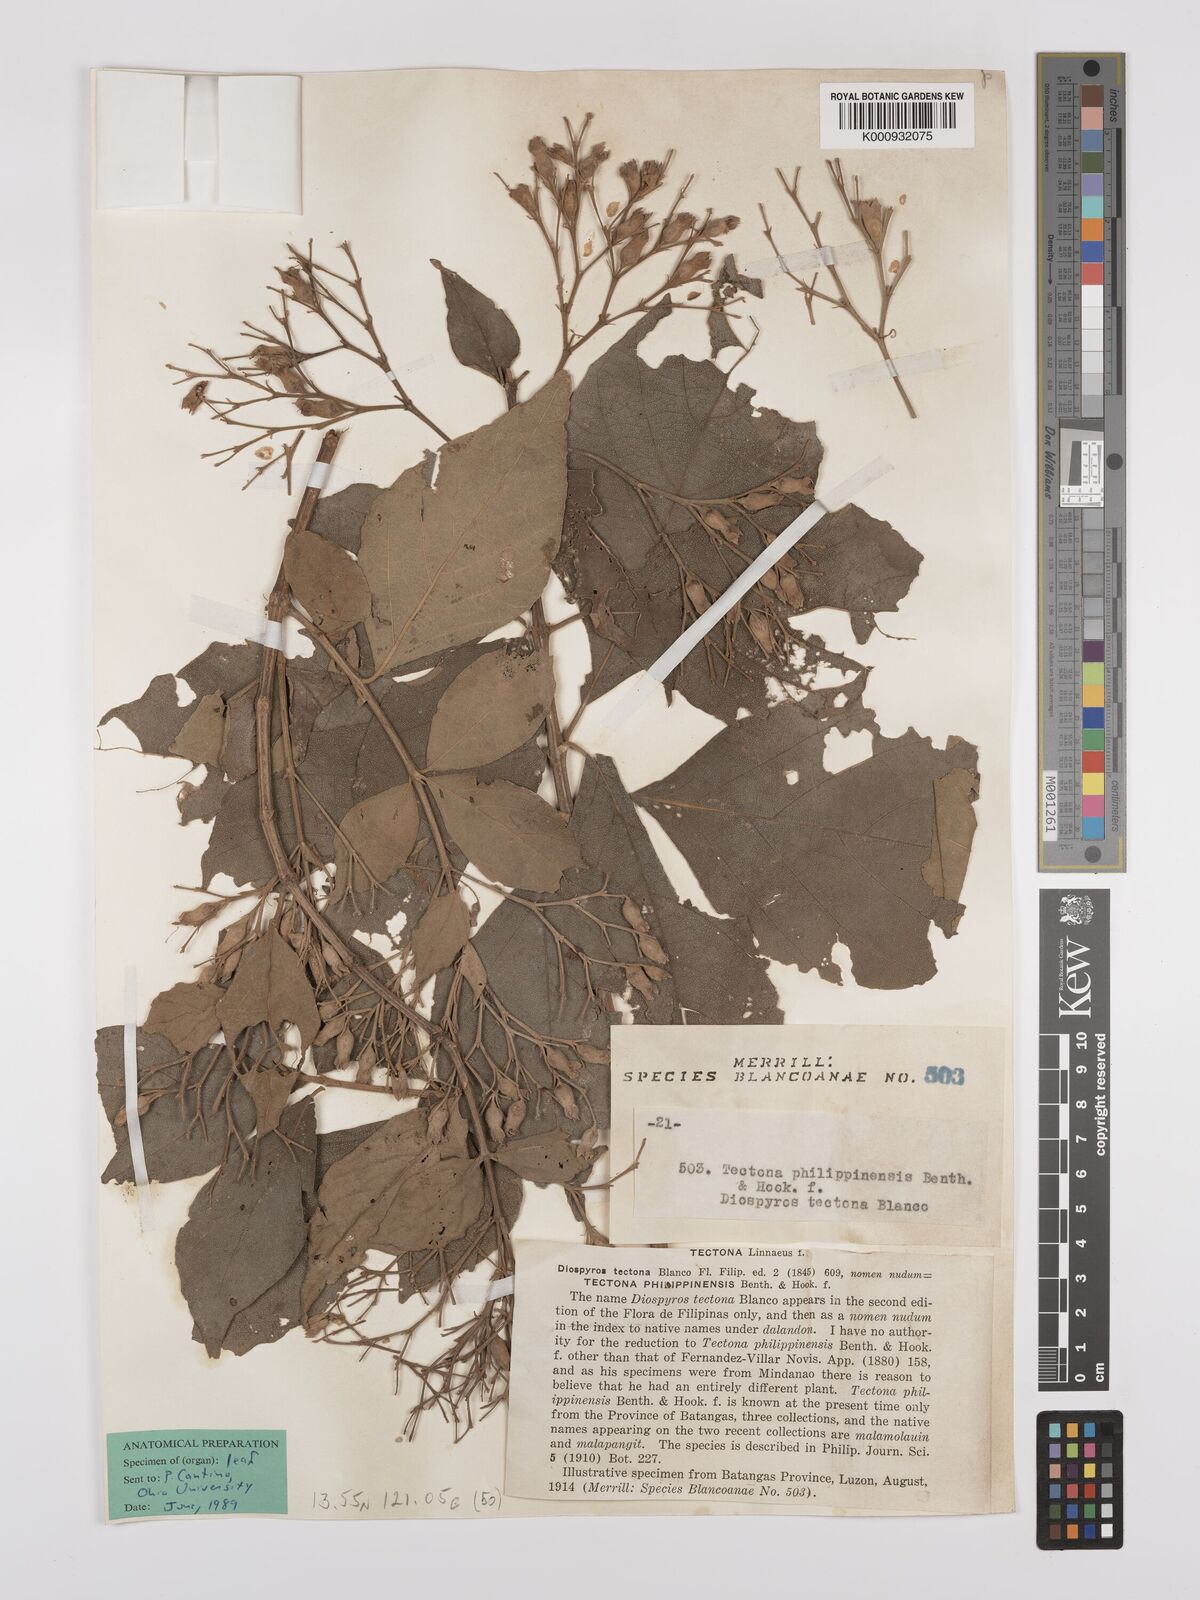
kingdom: Plantae
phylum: Tracheophyta
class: Magnoliopsida
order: Lamiales
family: Lamiaceae
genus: Tectona
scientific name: Tectona
